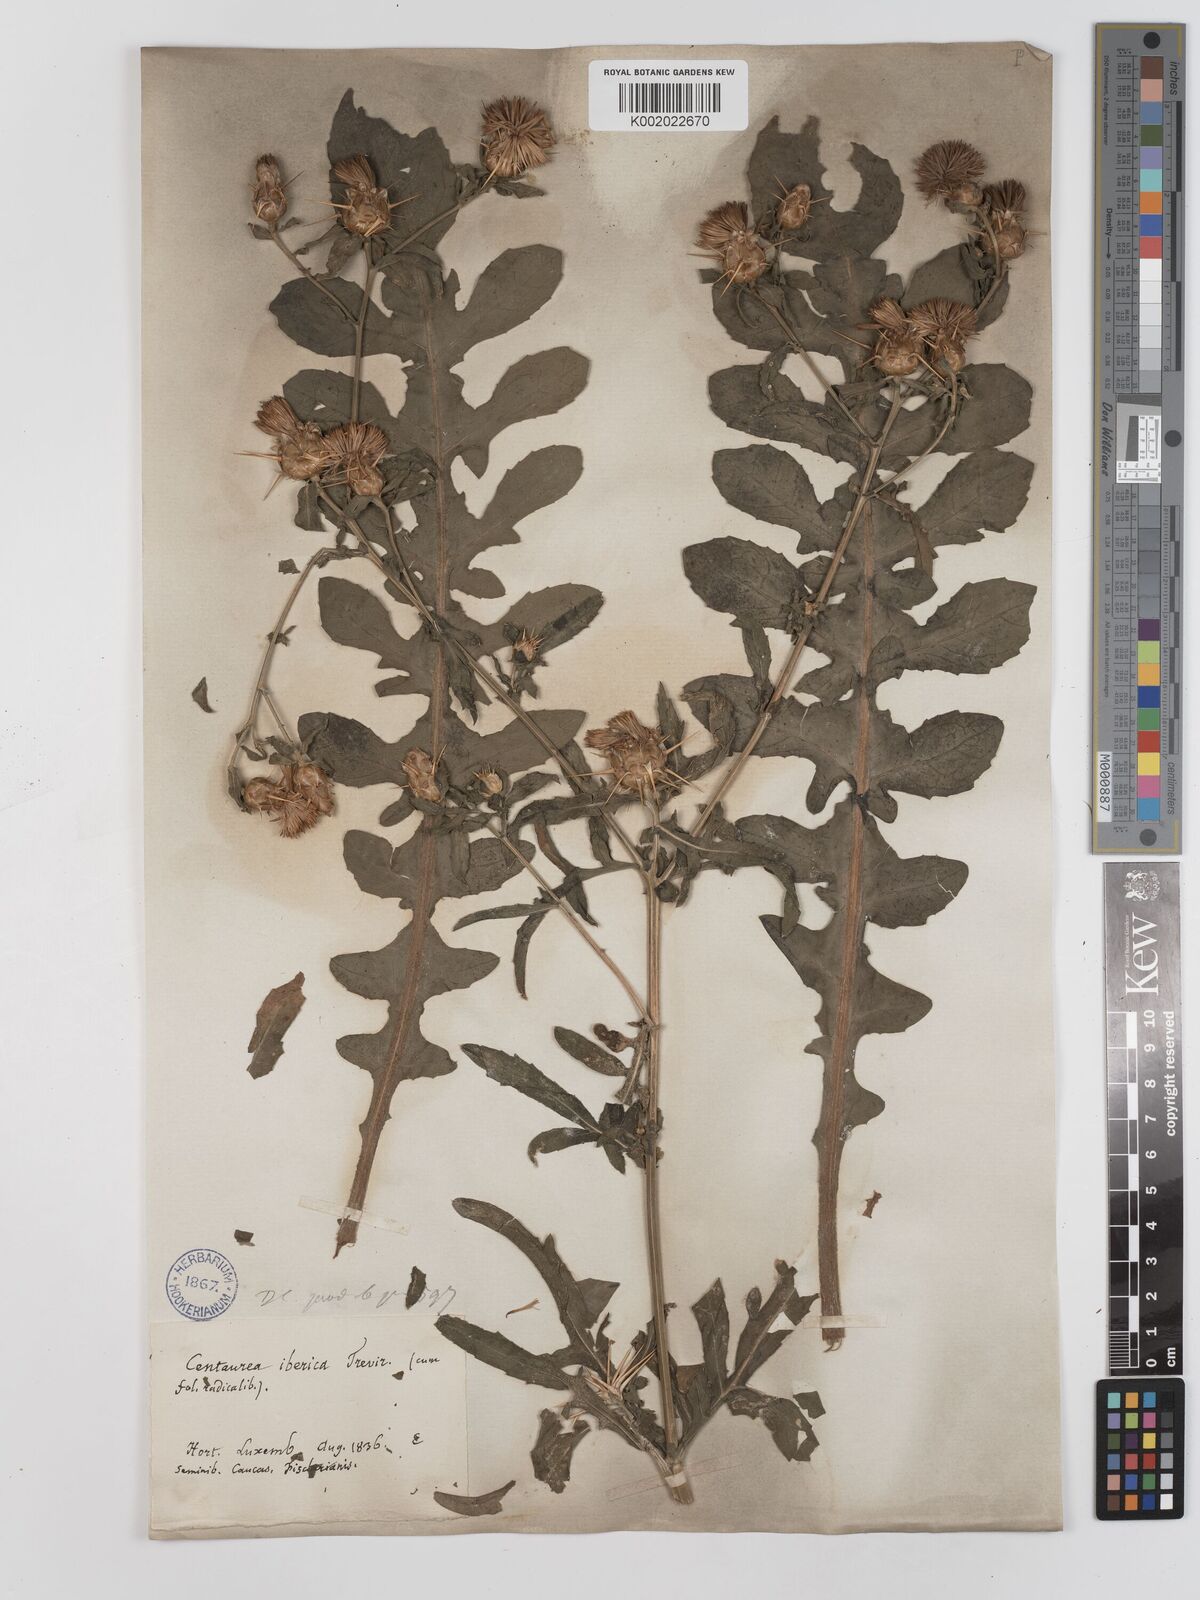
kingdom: Plantae
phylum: Tracheophyta
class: Magnoliopsida
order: Asterales
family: Asteraceae
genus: Centaurea
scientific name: Centaurea iberica
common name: Iberian knapweed
